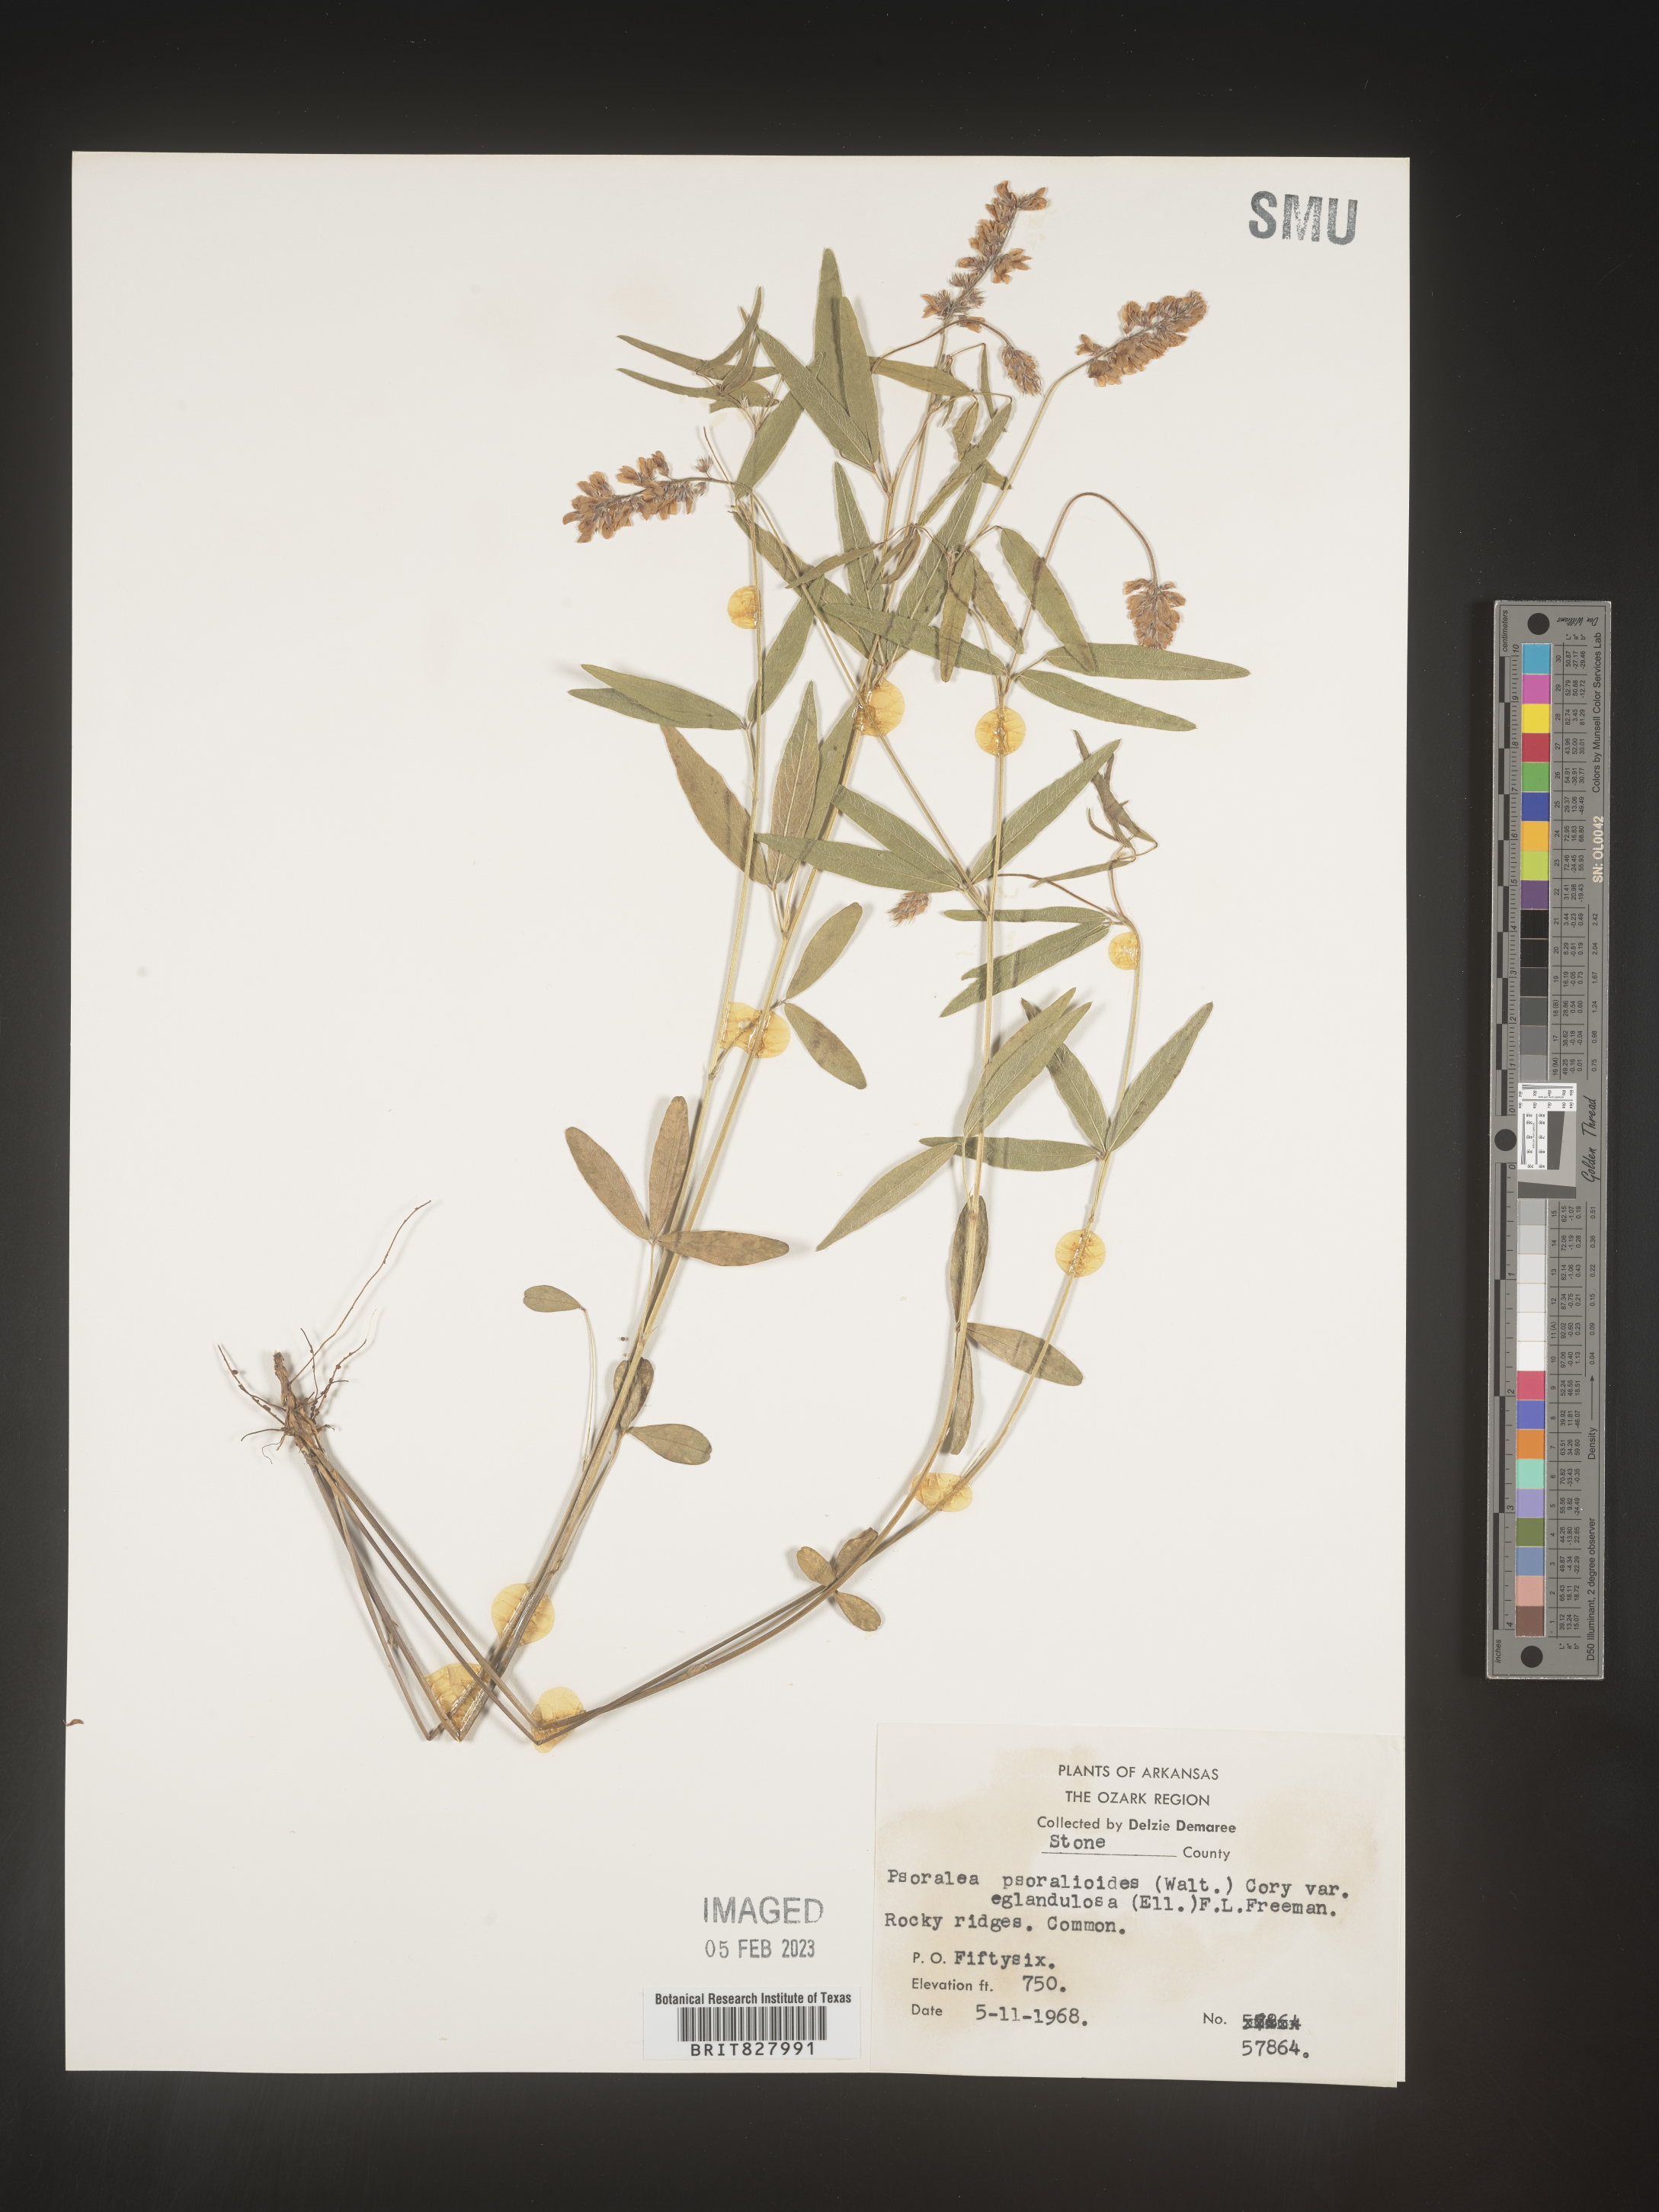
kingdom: Plantae
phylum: Tracheophyta
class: Magnoliopsida
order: Fabales
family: Fabaceae
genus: Orbexilum
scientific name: Orbexilum pedunculatum
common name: Sampson's snakeroot
